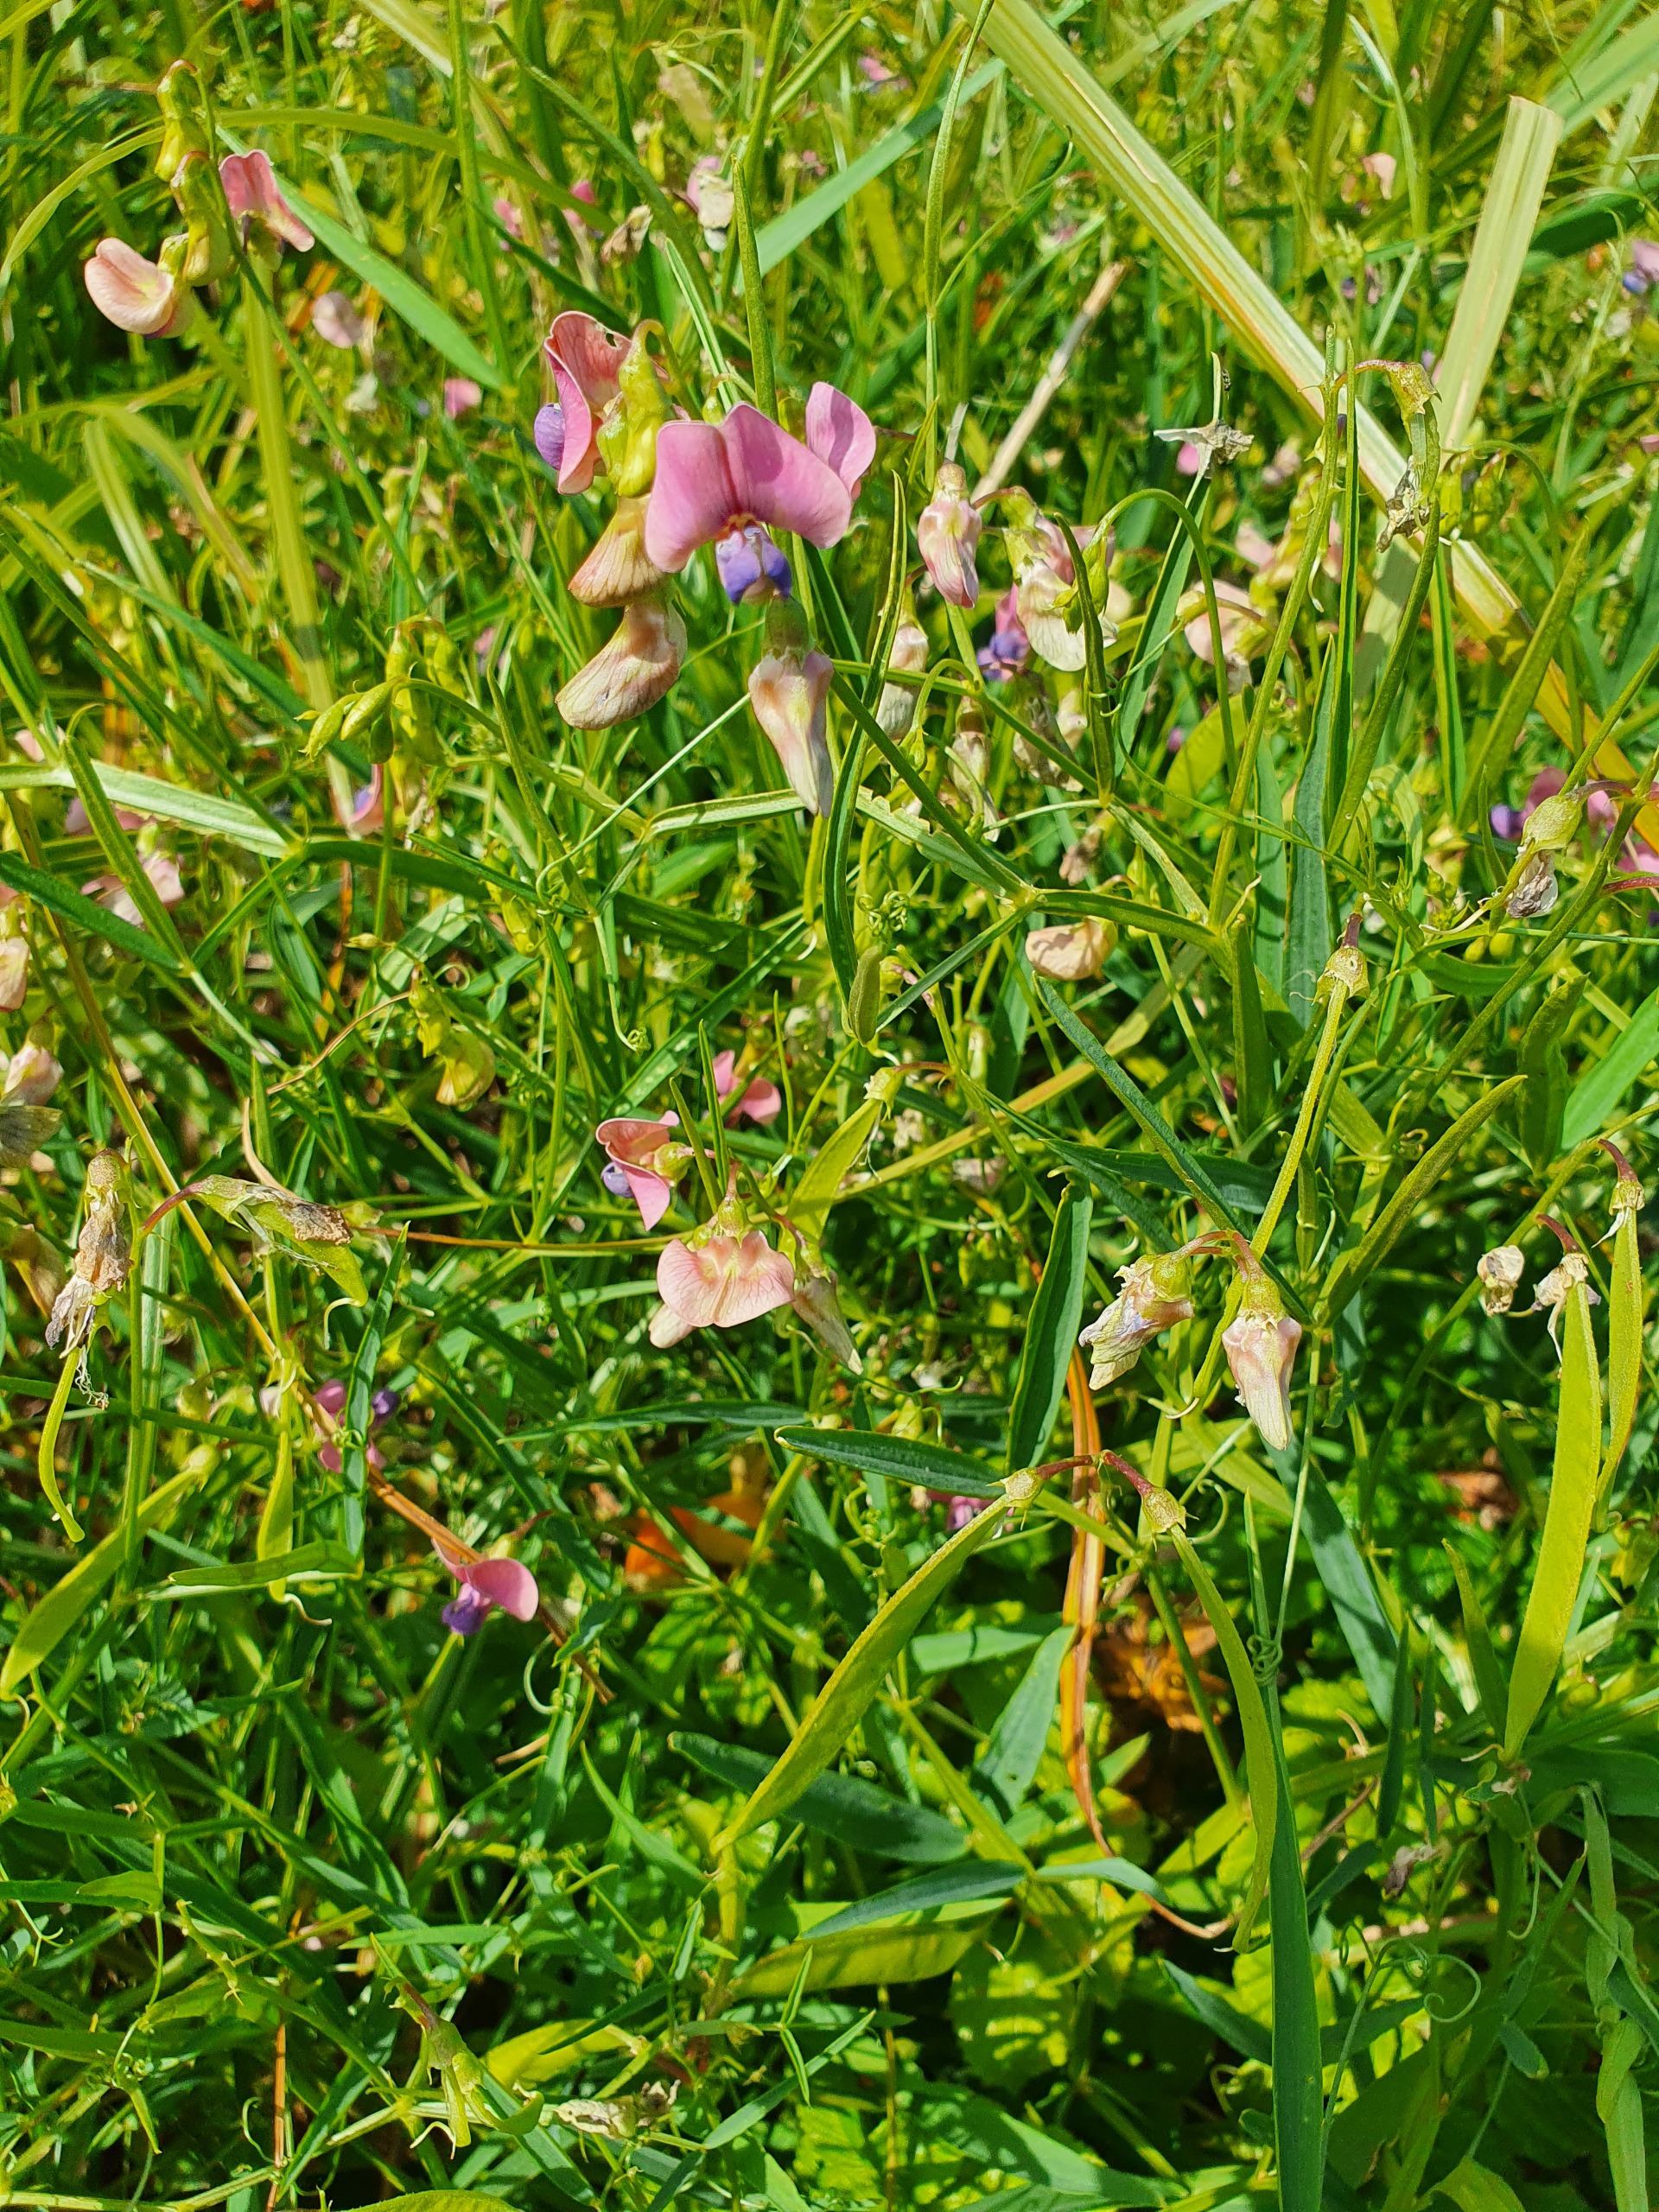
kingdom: Plantae
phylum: Tracheophyta
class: Magnoliopsida
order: Fabales
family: Fabaceae
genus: Lathyrus
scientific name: Lathyrus sylvestris
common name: Skov-fladbælg
